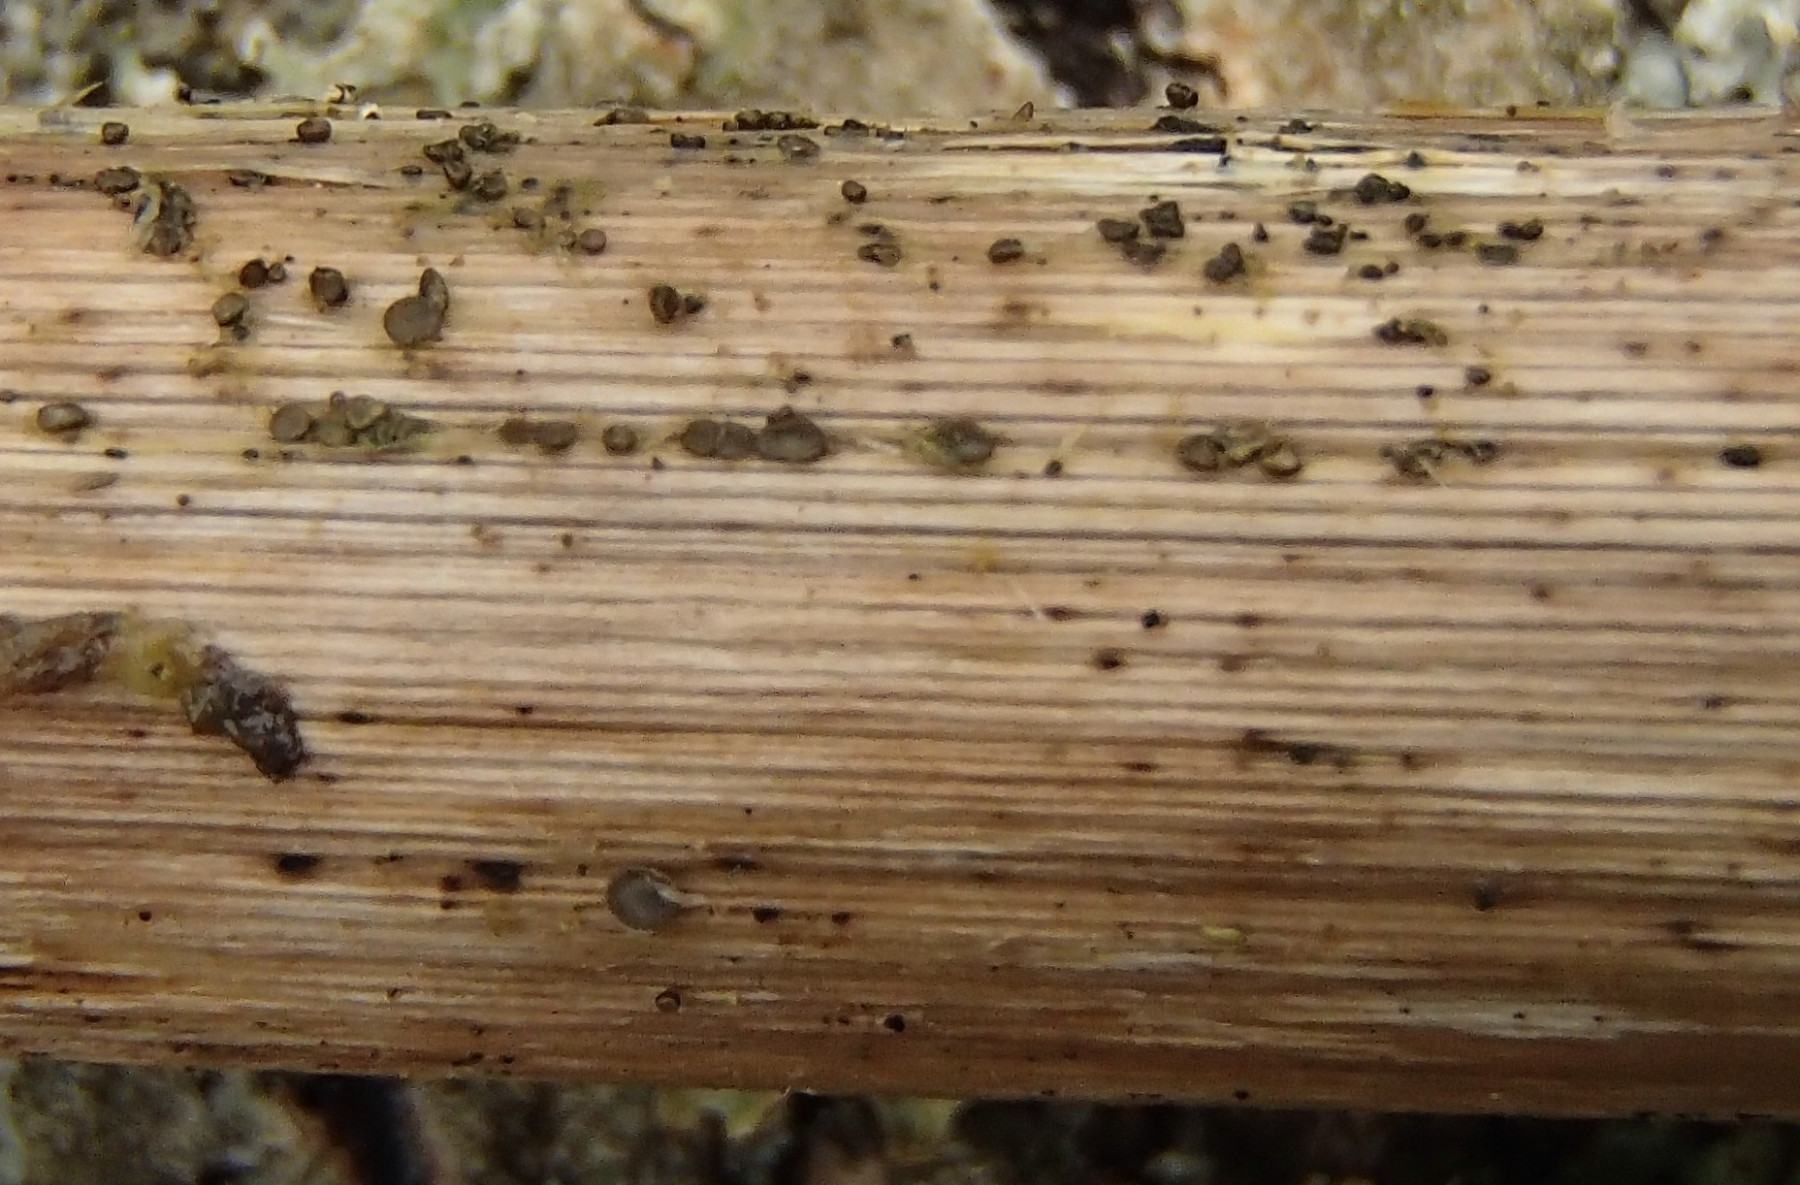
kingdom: Fungi
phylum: Ascomycota
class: Leotiomycetes
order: Helotiales
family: Dermateaceae
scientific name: Dermateaceae
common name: gråskivefamilien
